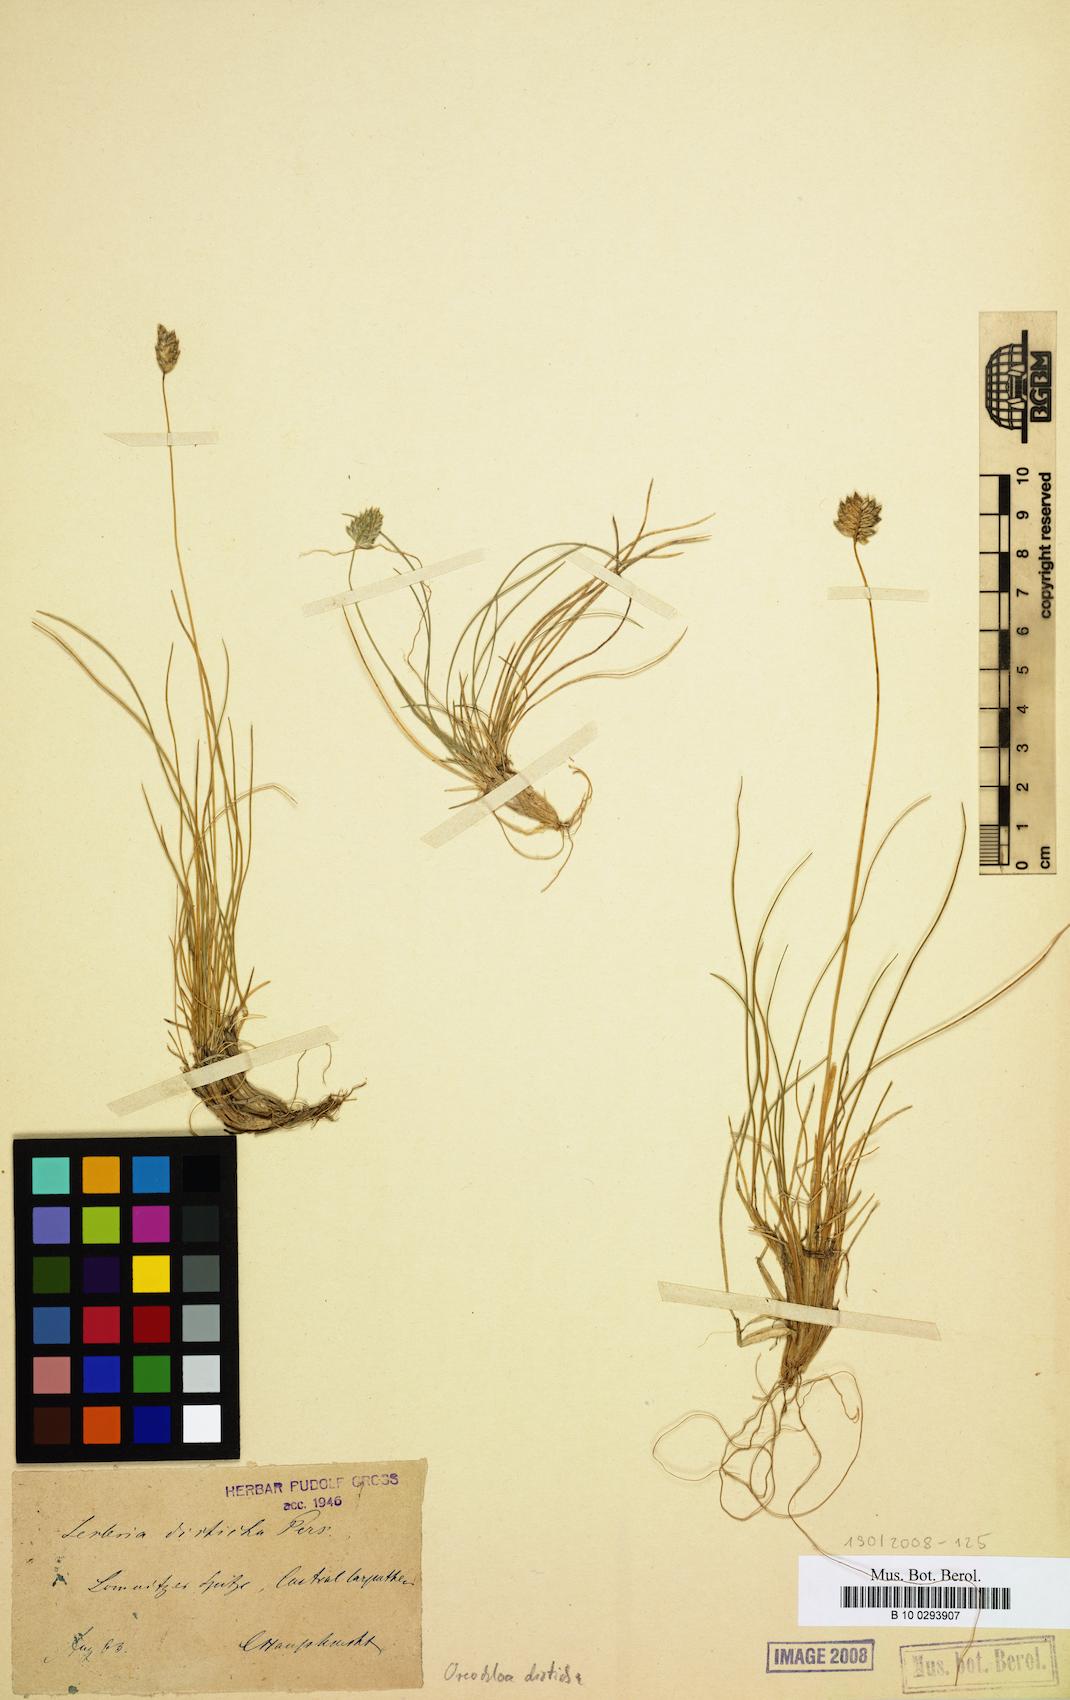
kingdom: Plantae
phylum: Tracheophyta
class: Liliopsida
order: Poales
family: Poaceae
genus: Oreochloa
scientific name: Oreochloa disticha
